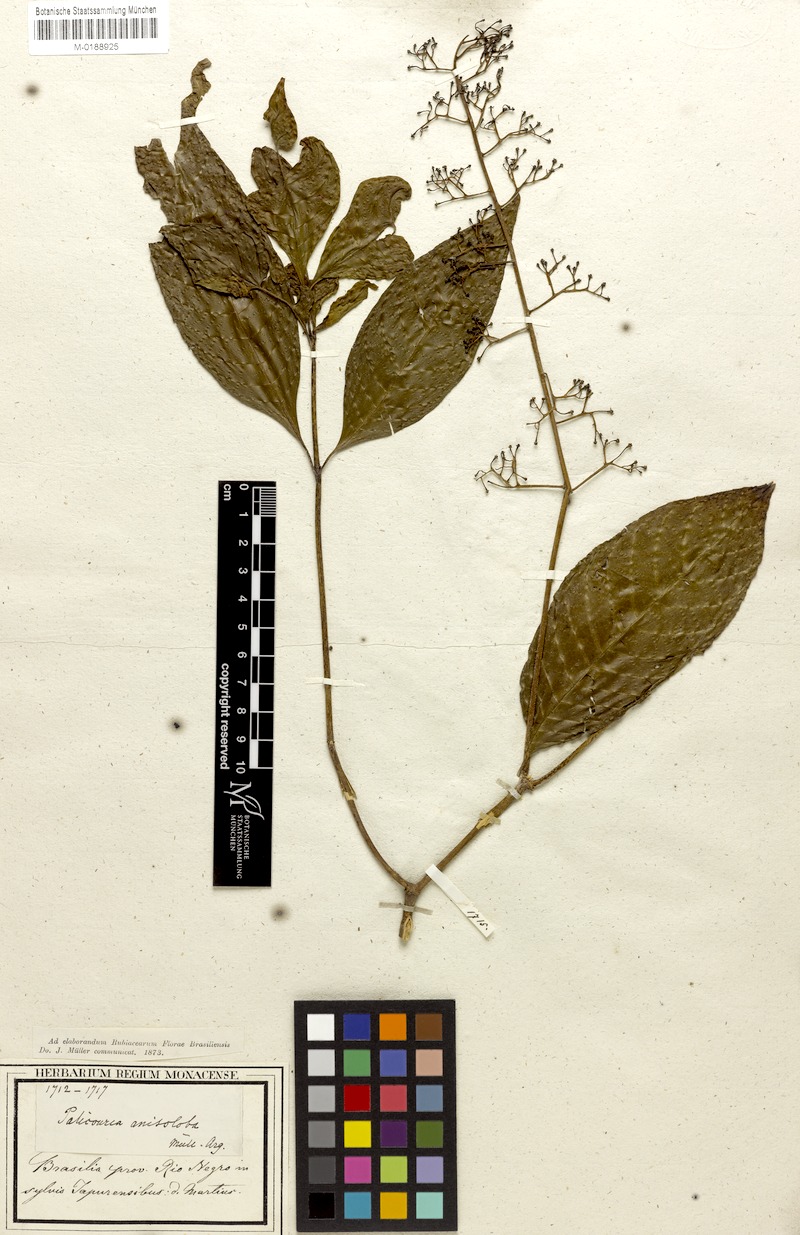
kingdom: Plantae
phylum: Tracheophyta
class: Magnoliopsida
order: Gentianales
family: Rubiaceae
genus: Palicourea
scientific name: Palicourea anisoloba
